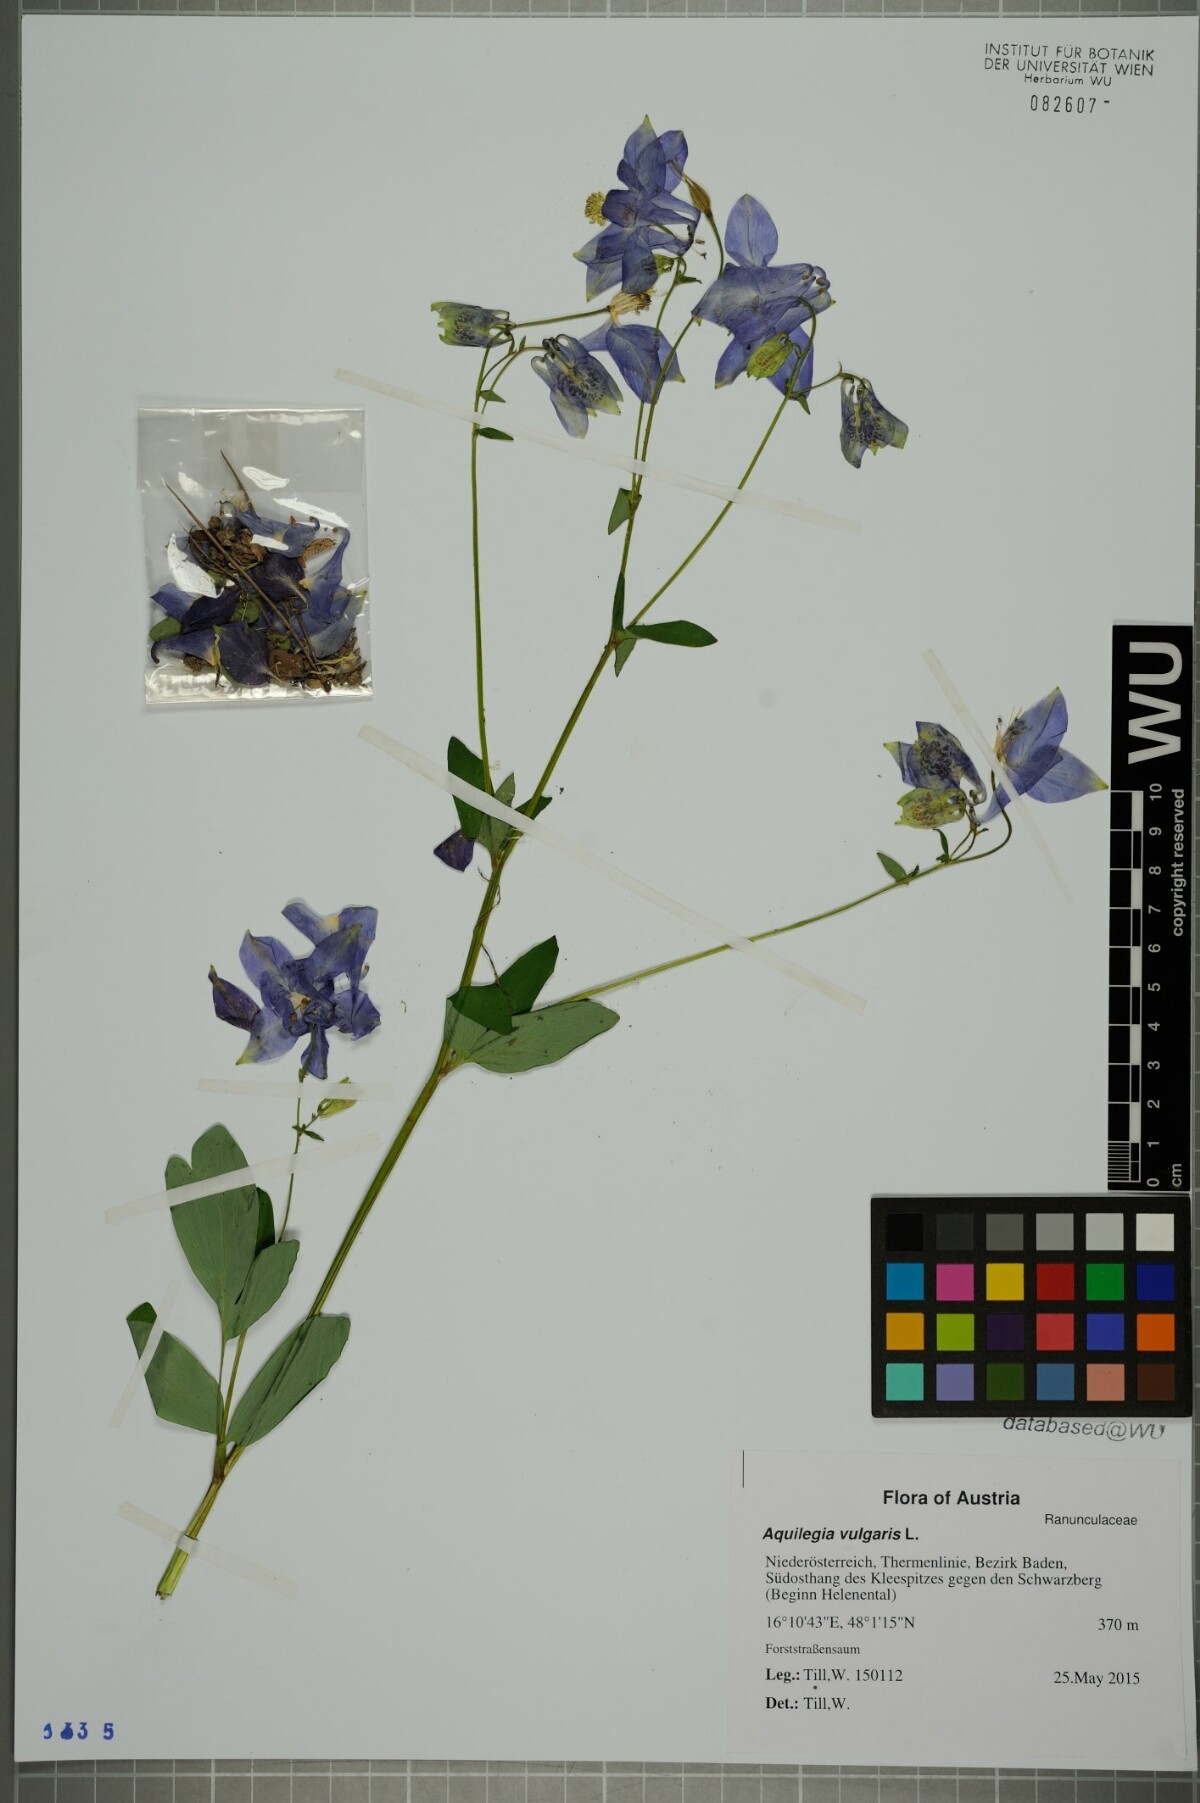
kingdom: Plantae
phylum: Tracheophyta
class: Magnoliopsida
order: Ranunculales
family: Ranunculaceae
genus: Aquilegia
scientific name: Aquilegia vulgaris
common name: Columbine
